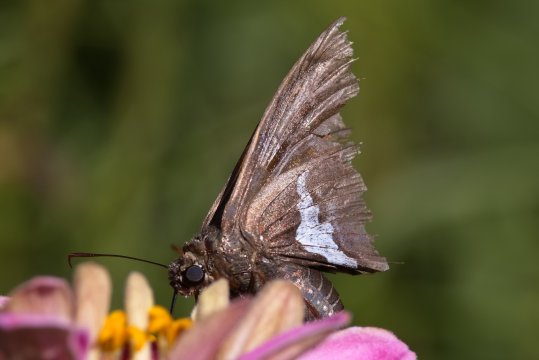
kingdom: Animalia
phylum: Arthropoda
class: Insecta
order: Lepidoptera
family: Hesperiidae
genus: Epargyreus
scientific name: Epargyreus clarus
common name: Silver-spotted Skipper
